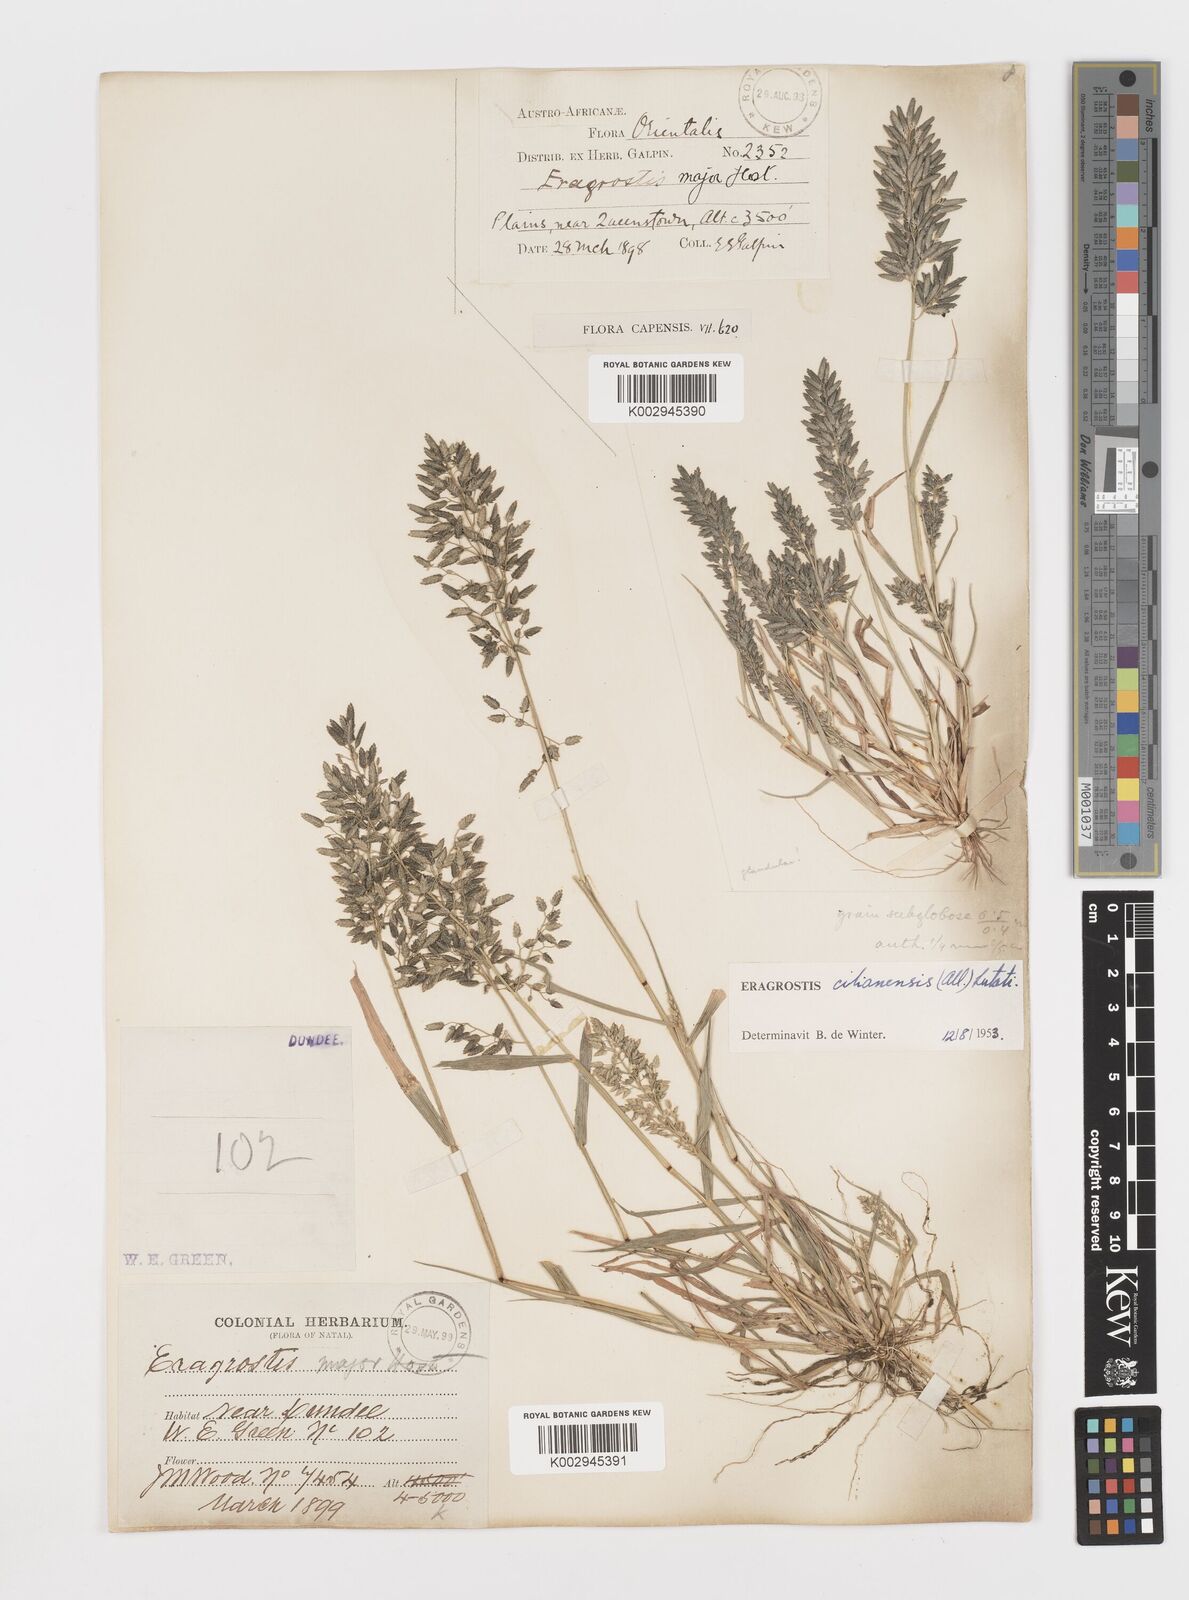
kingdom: Plantae
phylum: Tracheophyta
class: Liliopsida
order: Poales
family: Poaceae
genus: Eragrostis
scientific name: Eragrostis cilianensis
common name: Stinkgrass
